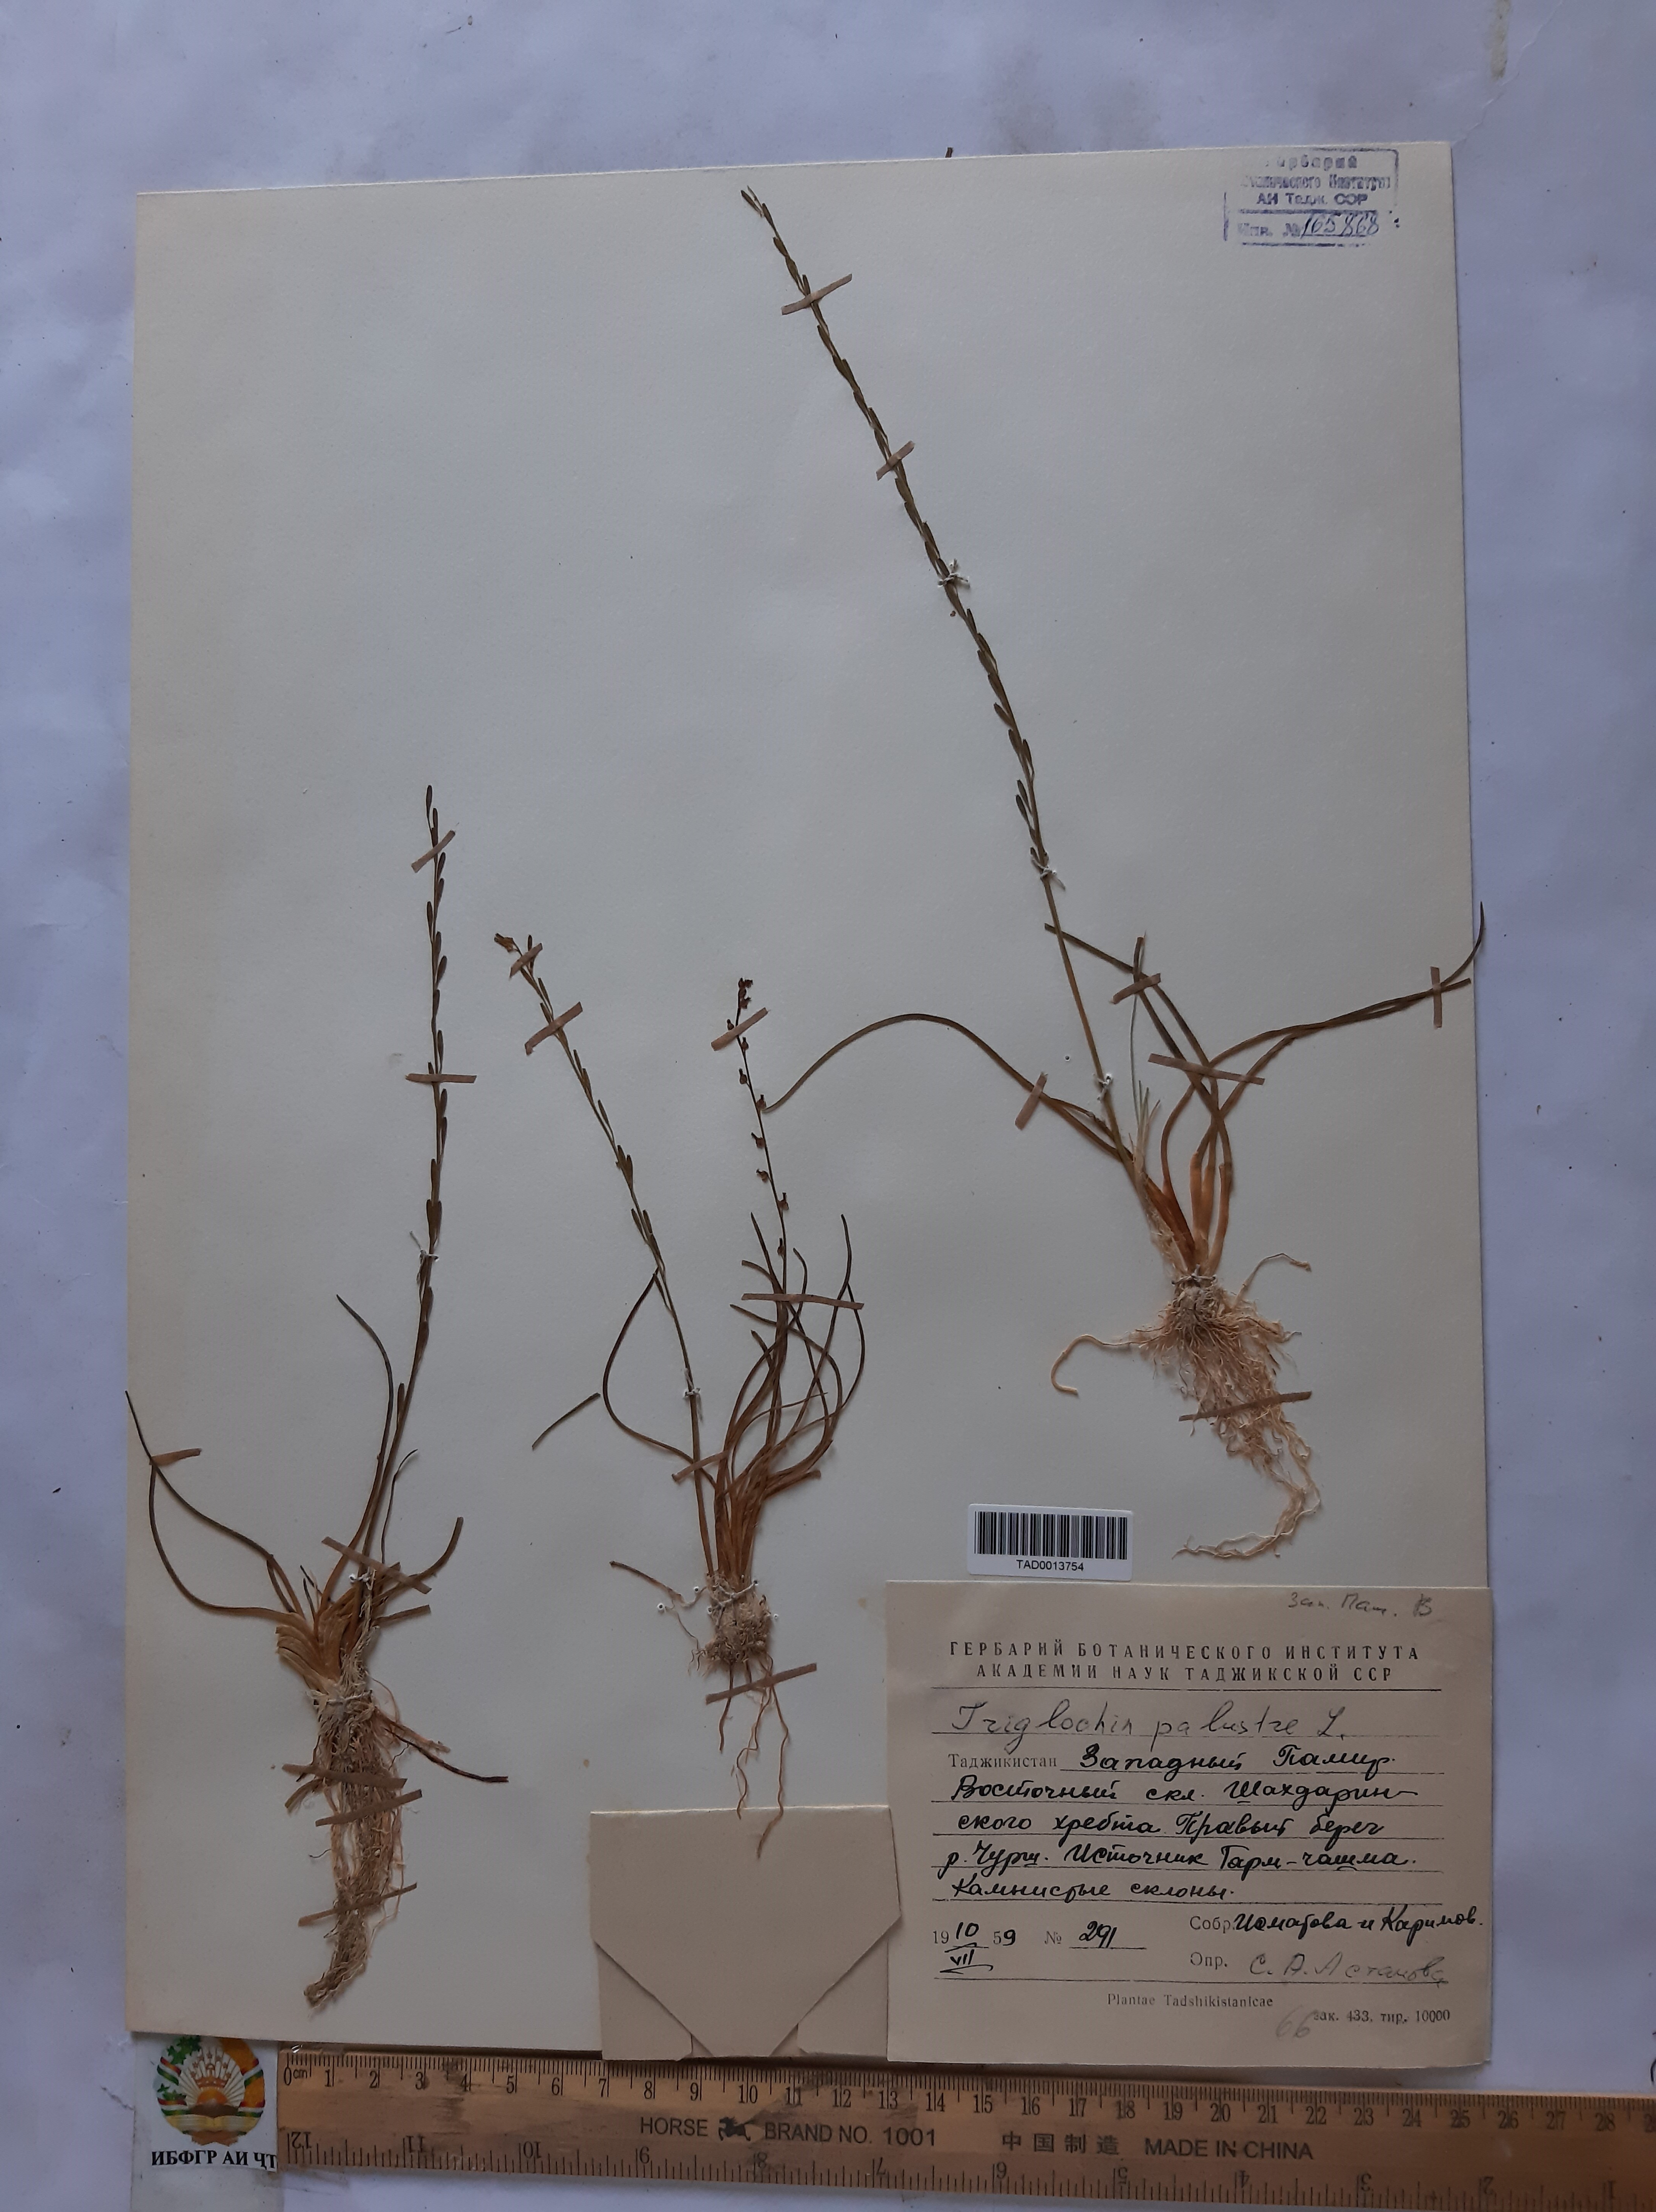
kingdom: Plantae
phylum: Tracheophyta
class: Liliopsida
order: Alismatales
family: Juncaginaceae
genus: Triglochin
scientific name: Triglochin palustris
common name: Marsh arrowgrass
